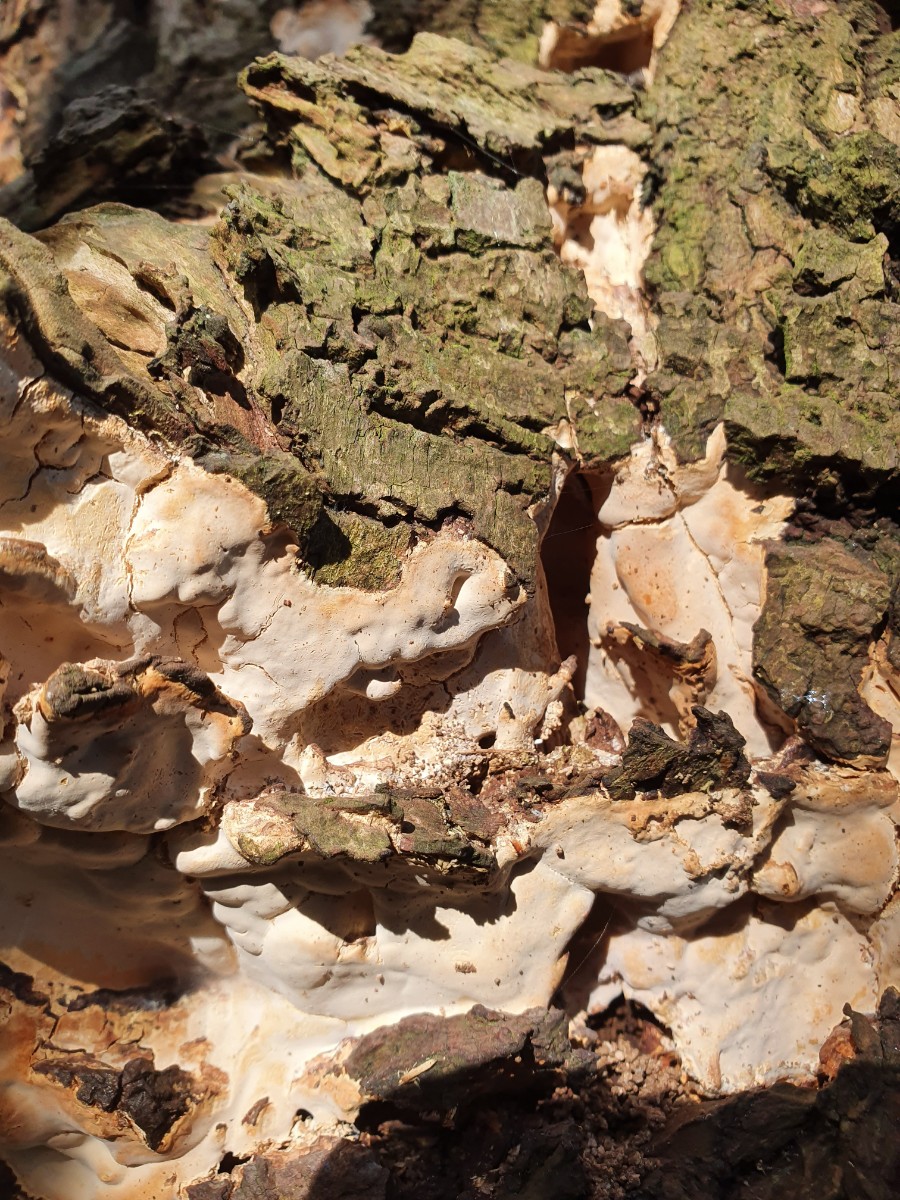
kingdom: Fungi
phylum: Basidiomycota
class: Agaricomycetes
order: Russulales
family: Stereaceae
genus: Stereum
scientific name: Stereum rugosum
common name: rynket lædersvamp
